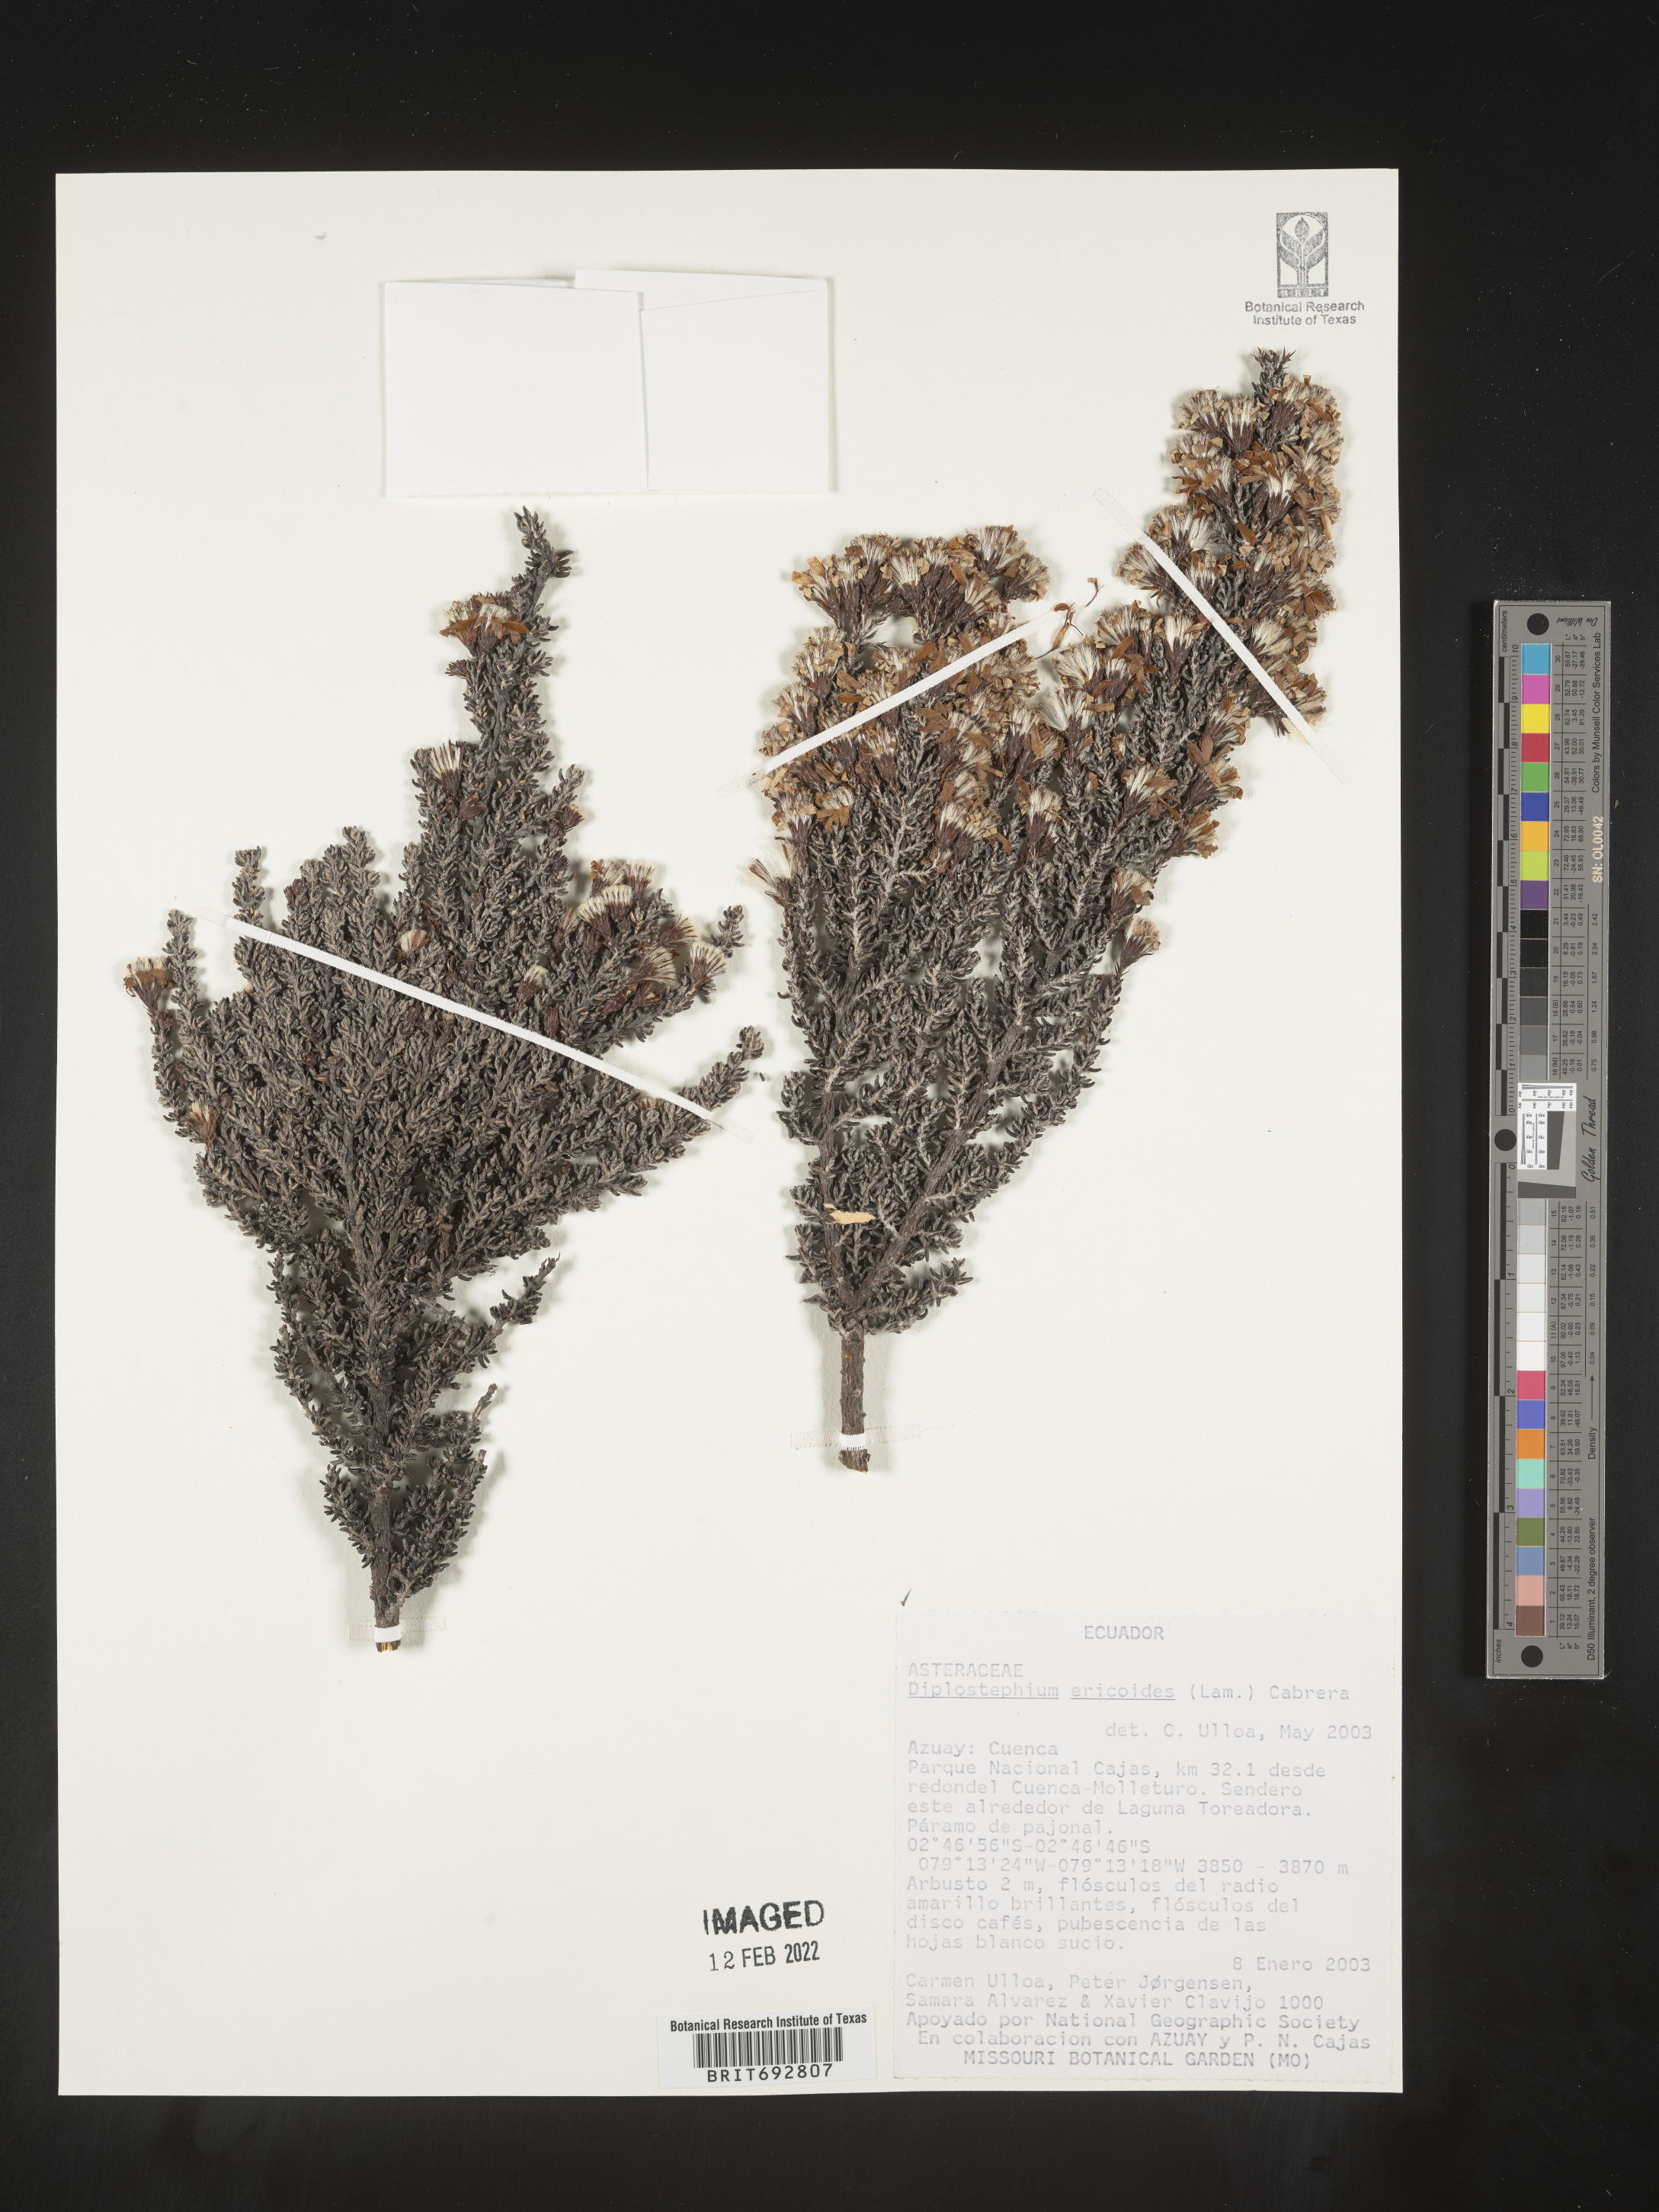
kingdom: Plantae
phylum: Tracheophyta
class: Magnoliopsida
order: Asterales
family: Asteraceae
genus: Diplostephium
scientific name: Diplostephium
